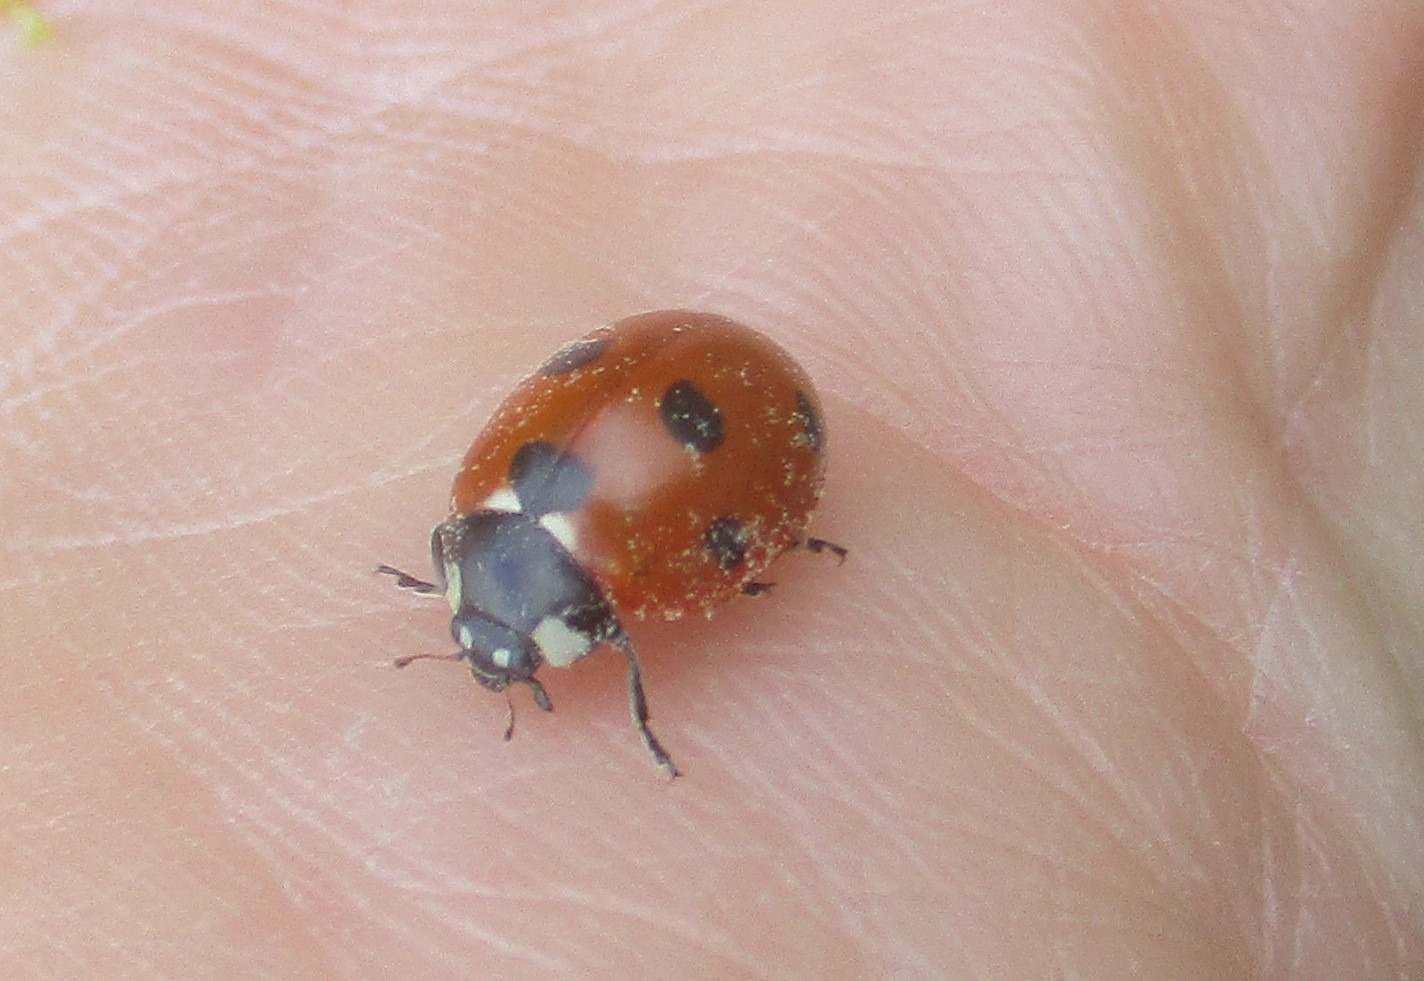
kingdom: Animalia
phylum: Arthropoda
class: Insecta
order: Coleoptera
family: Coccinellidae
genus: Coccinella
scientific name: Coccinella septempunctata
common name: Syvplettet mariehøne
